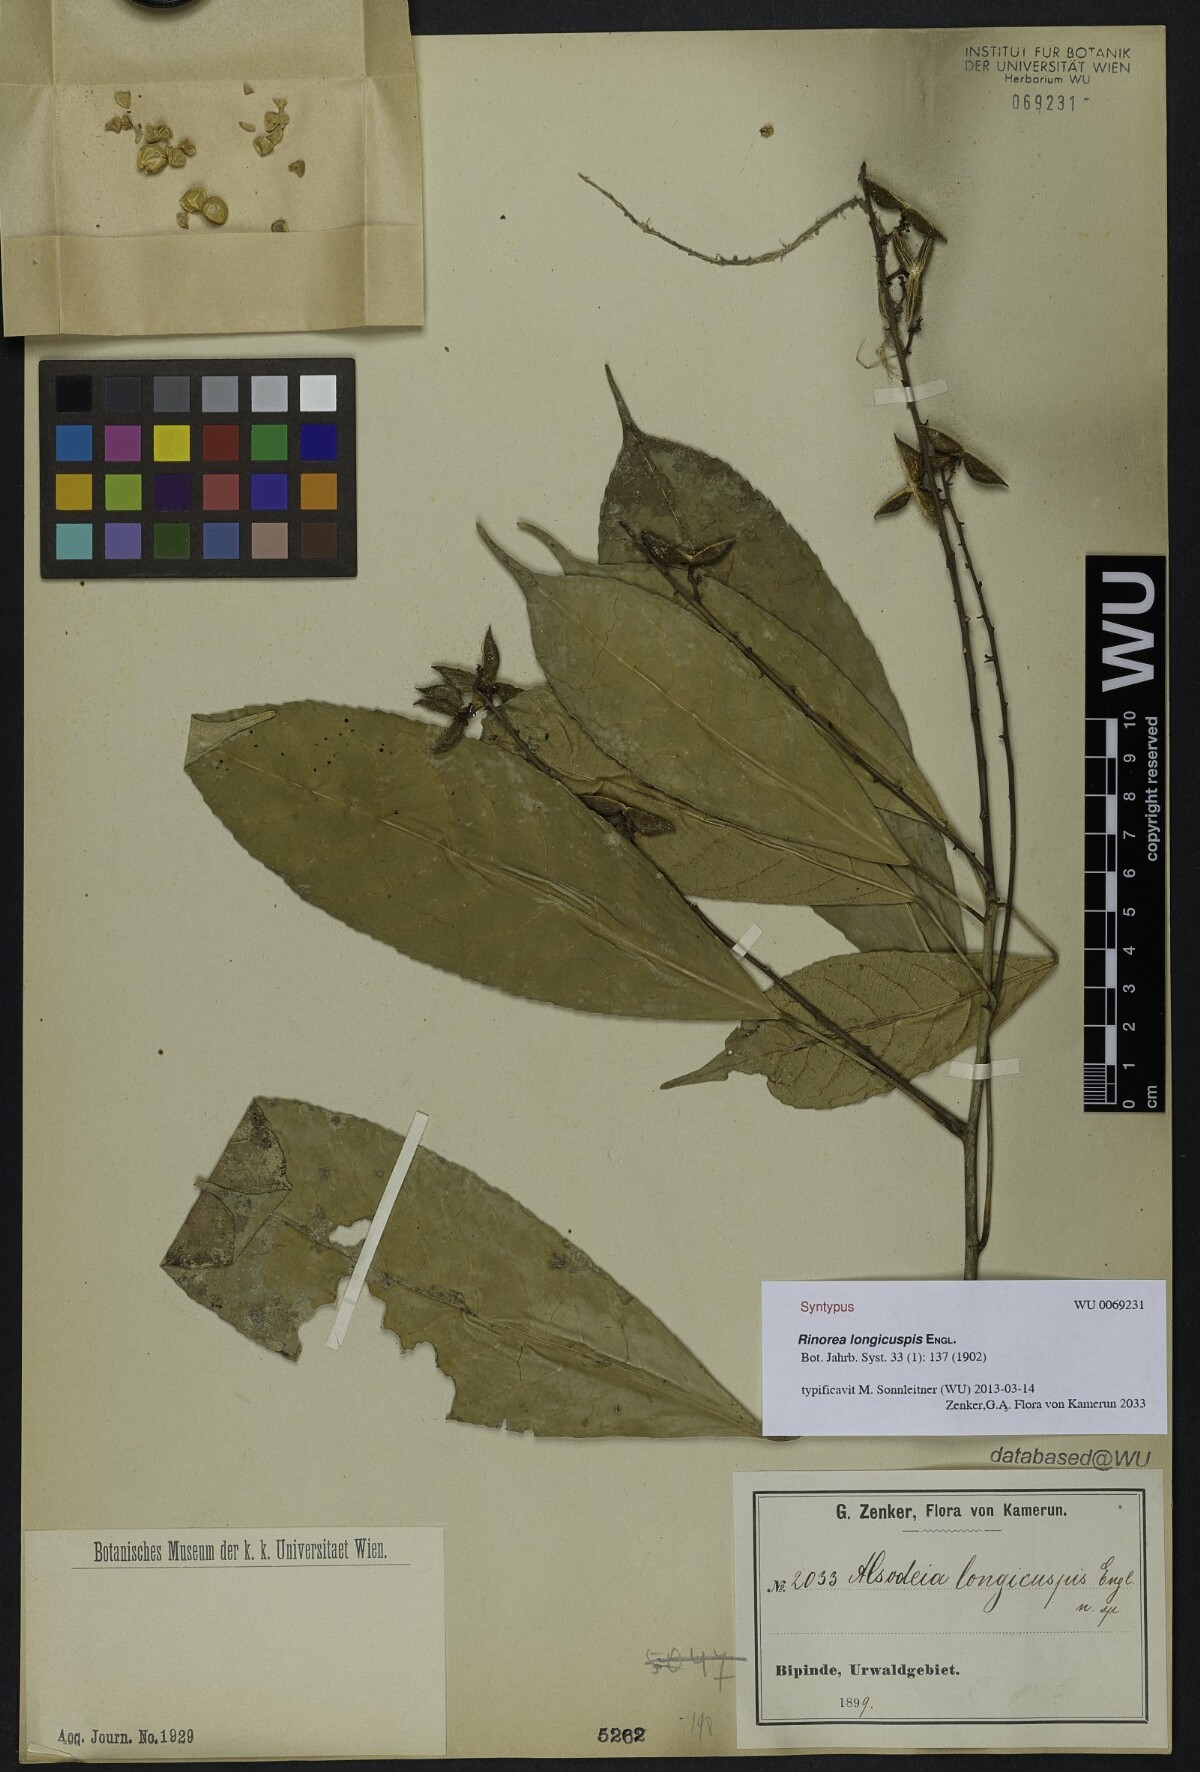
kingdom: Plantae
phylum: Tracheophyta
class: Magnoliopsida
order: Malpighiales
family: Violaceae
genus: Rinorea
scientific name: Rinorea welwitschii
